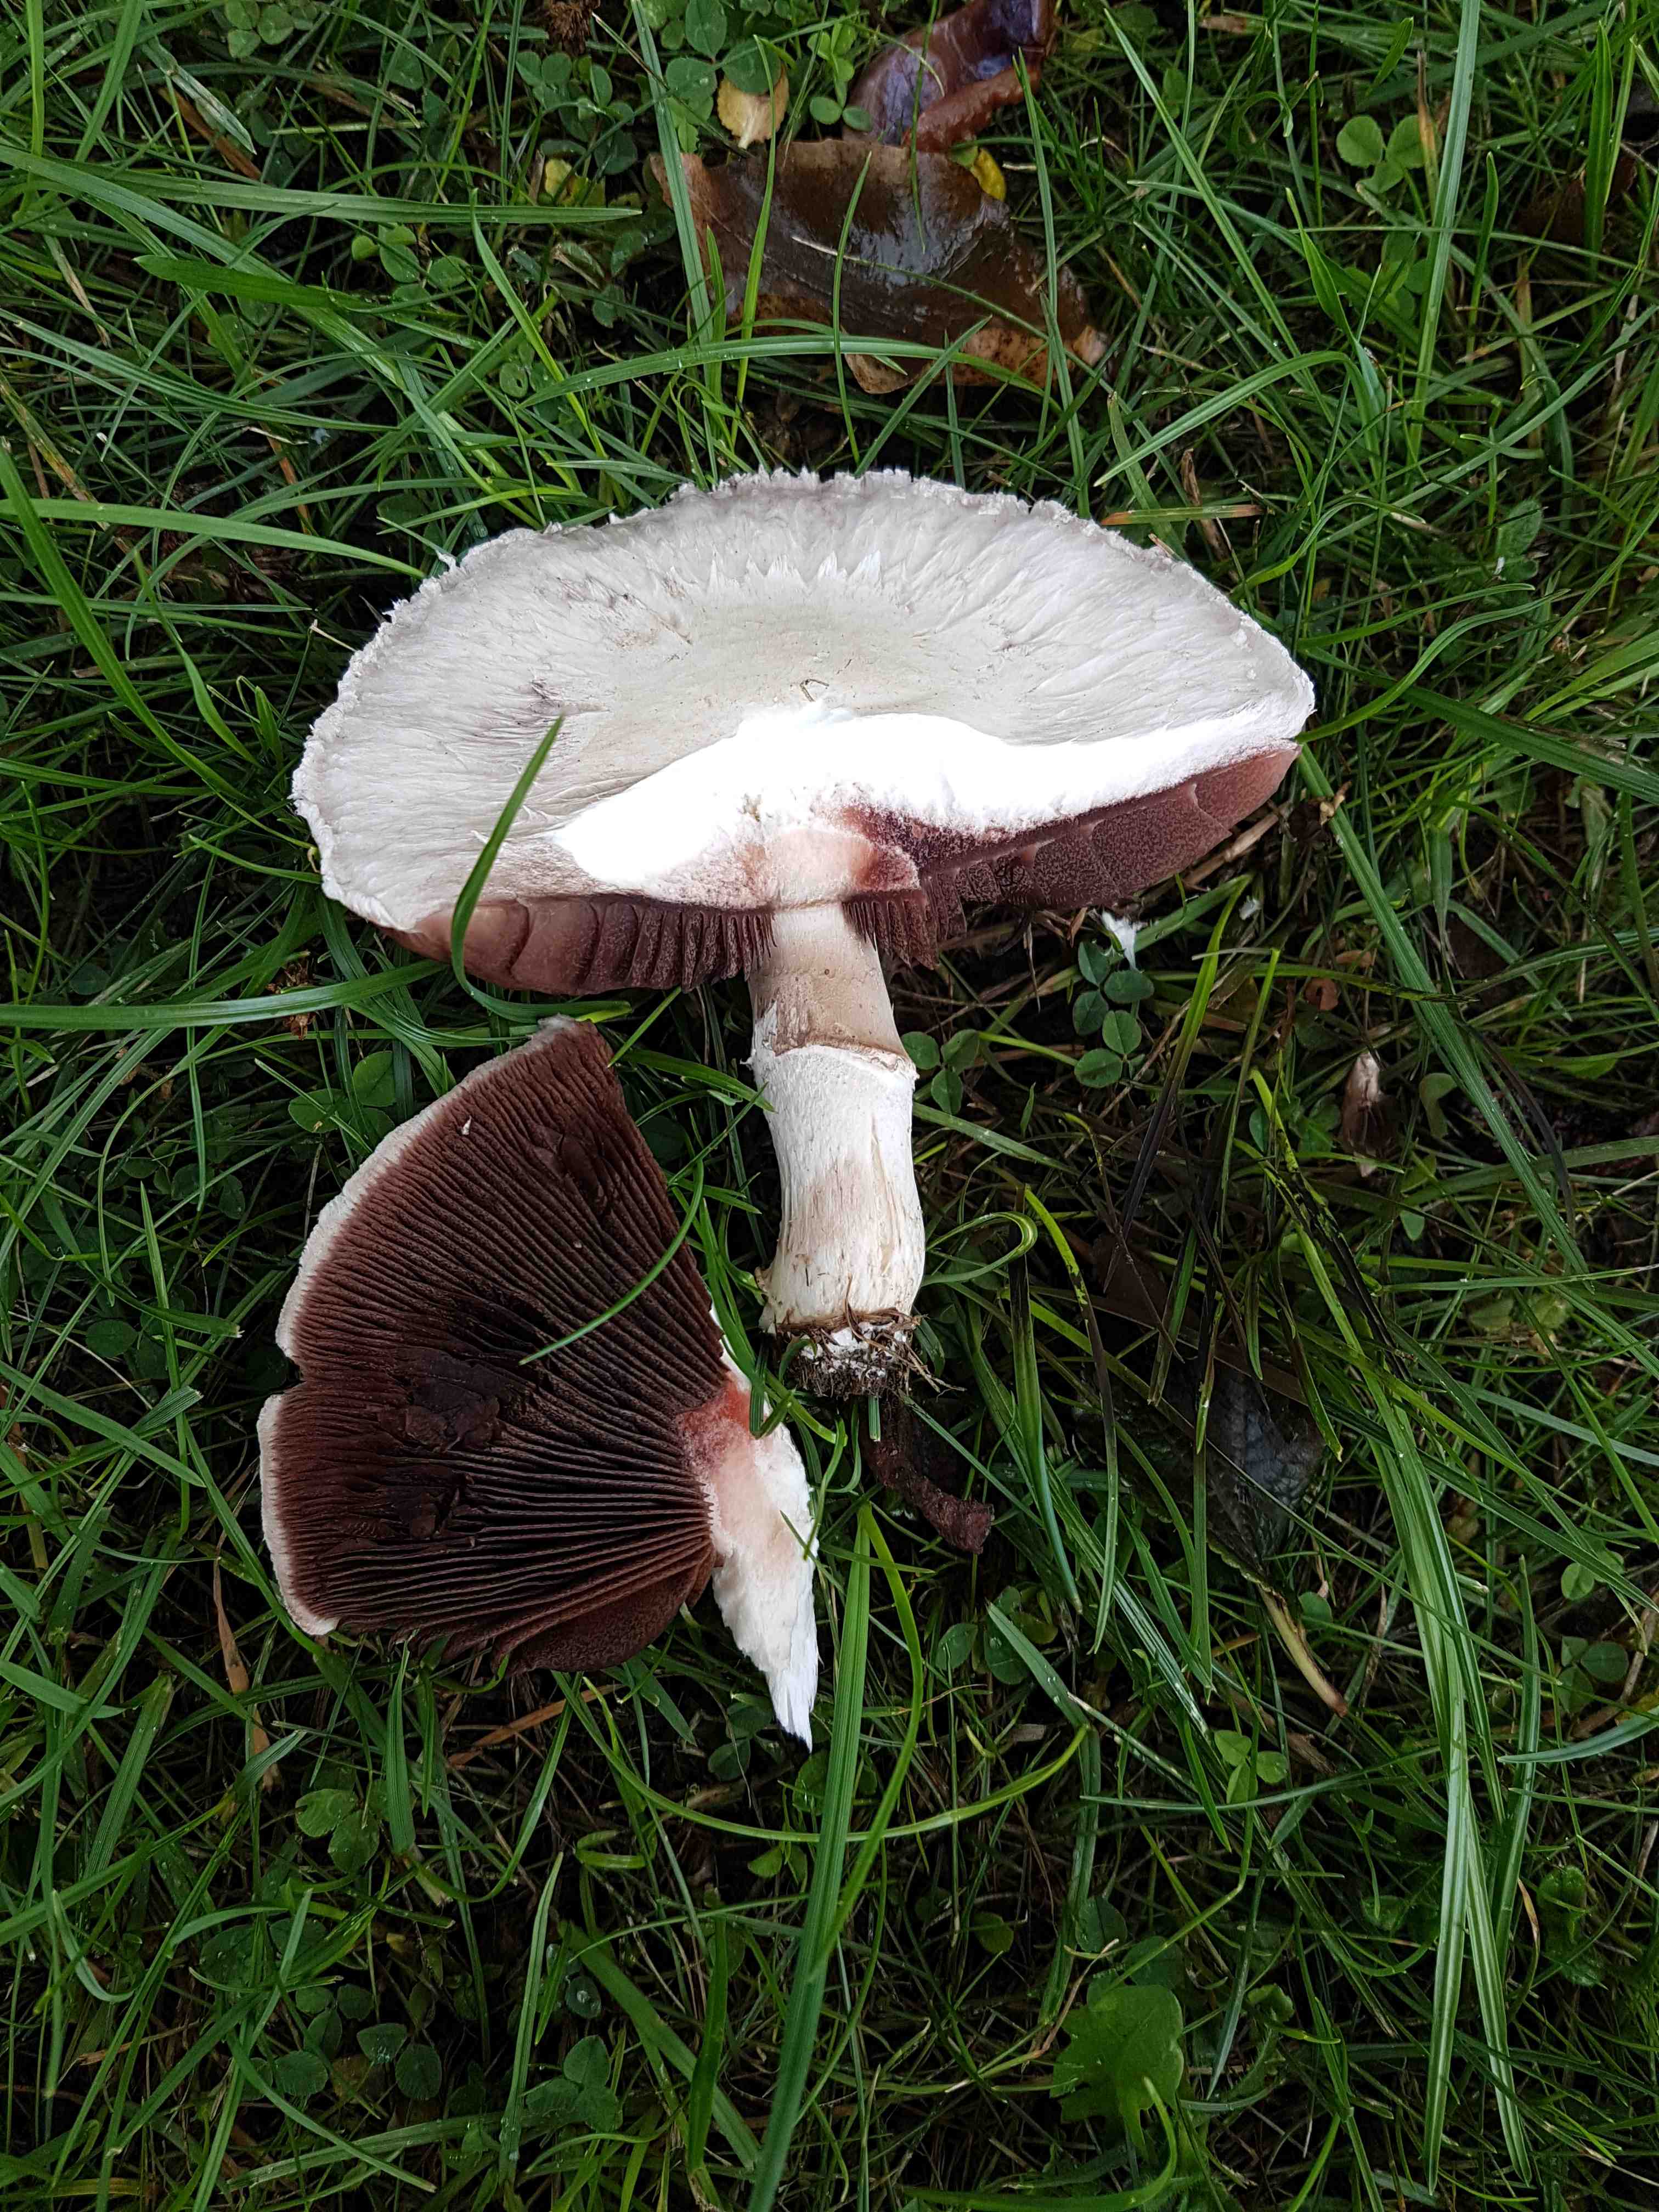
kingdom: Fungi
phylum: Basidiomycota
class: Agaricomycetes
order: Agaricales
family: Agaricaceae
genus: Agaricus
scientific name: Agaricus campestris
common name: mark-champignon
